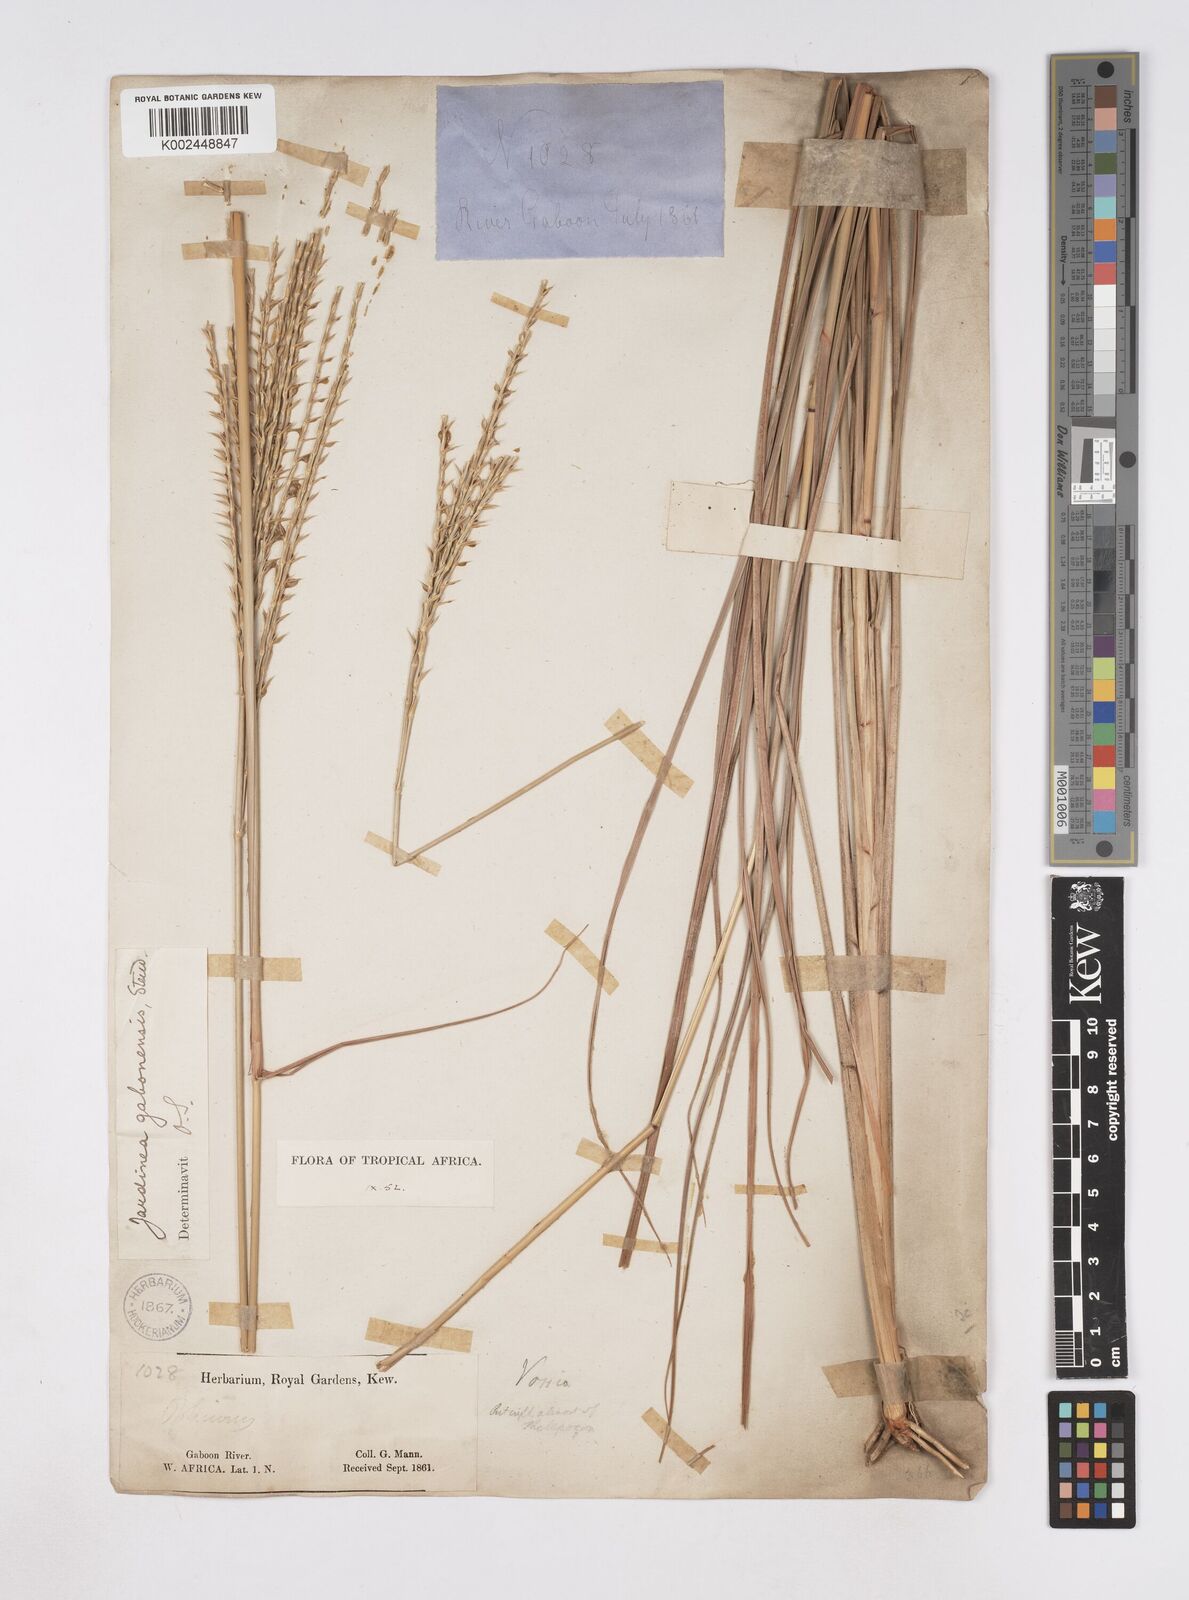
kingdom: Plantae
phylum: Tracheophyta
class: Liliopsida
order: Poales
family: Poaceae
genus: Phacelurus
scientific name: Phacelurus gabonensis
